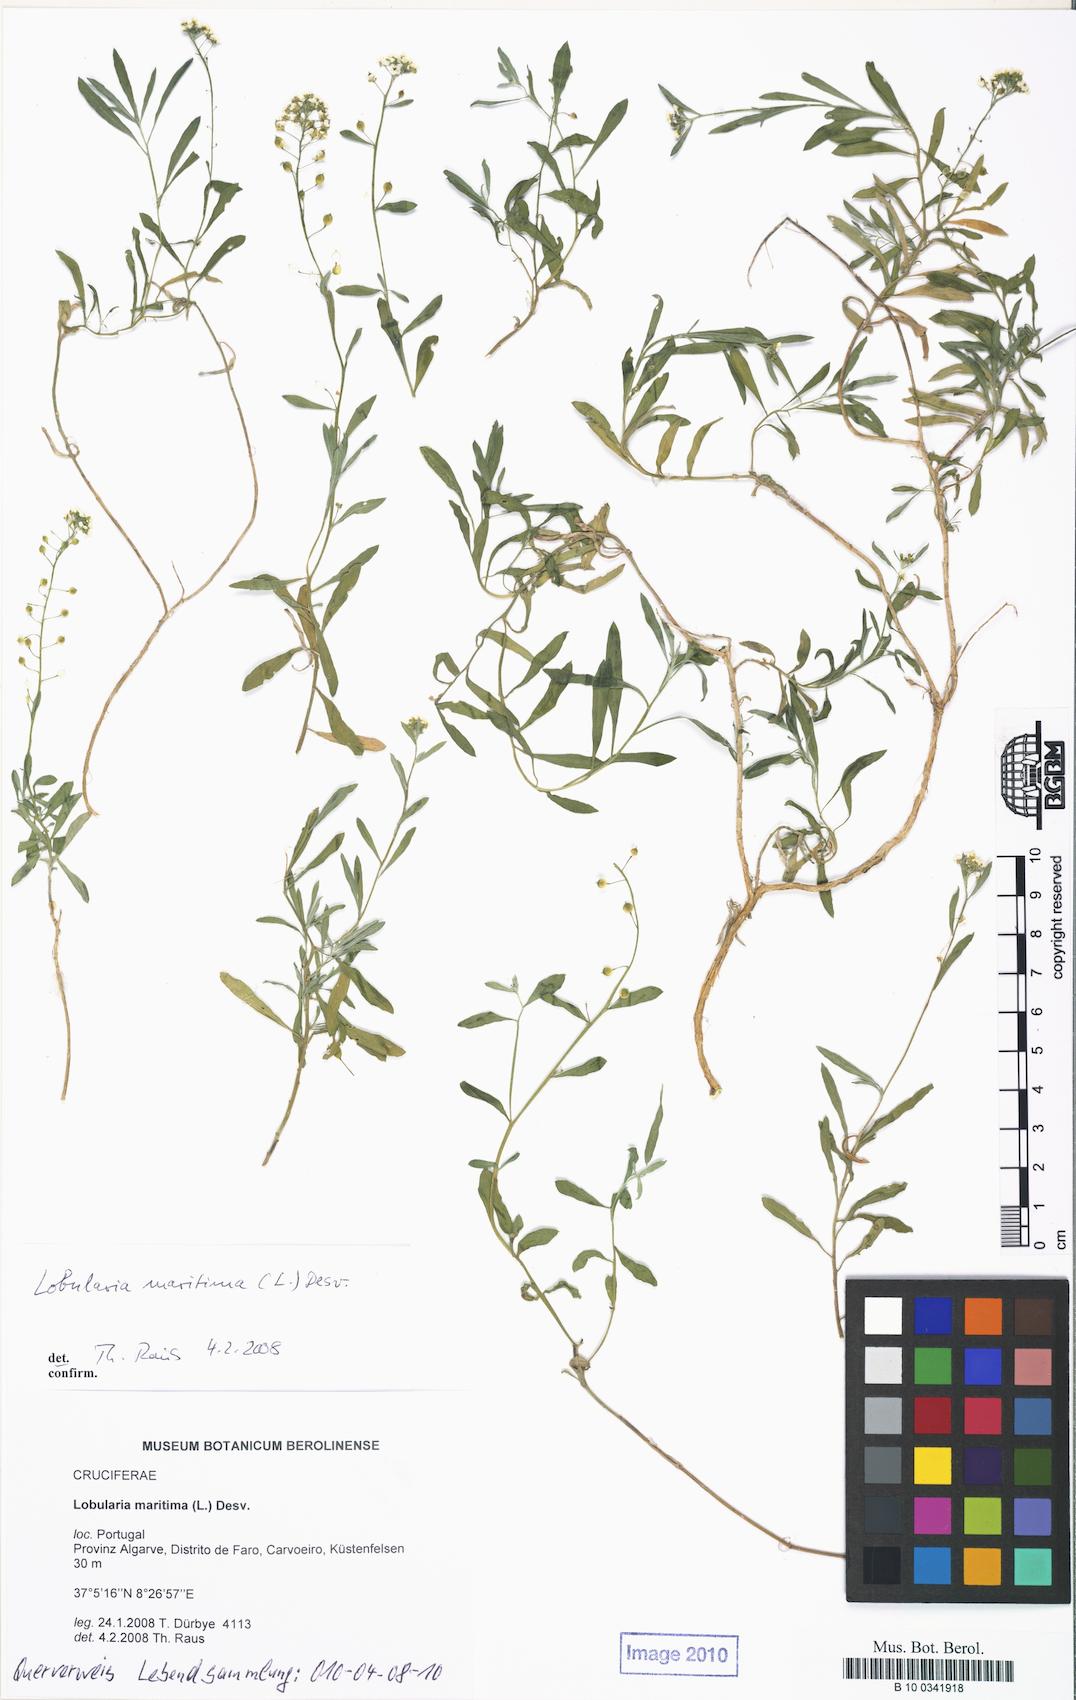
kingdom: Plantae
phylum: Tracheophyta
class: Magnoliopsida
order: Brassicales
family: Brassicaceae
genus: Lobularia
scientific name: Lobularia maritima
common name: Sweet alison
